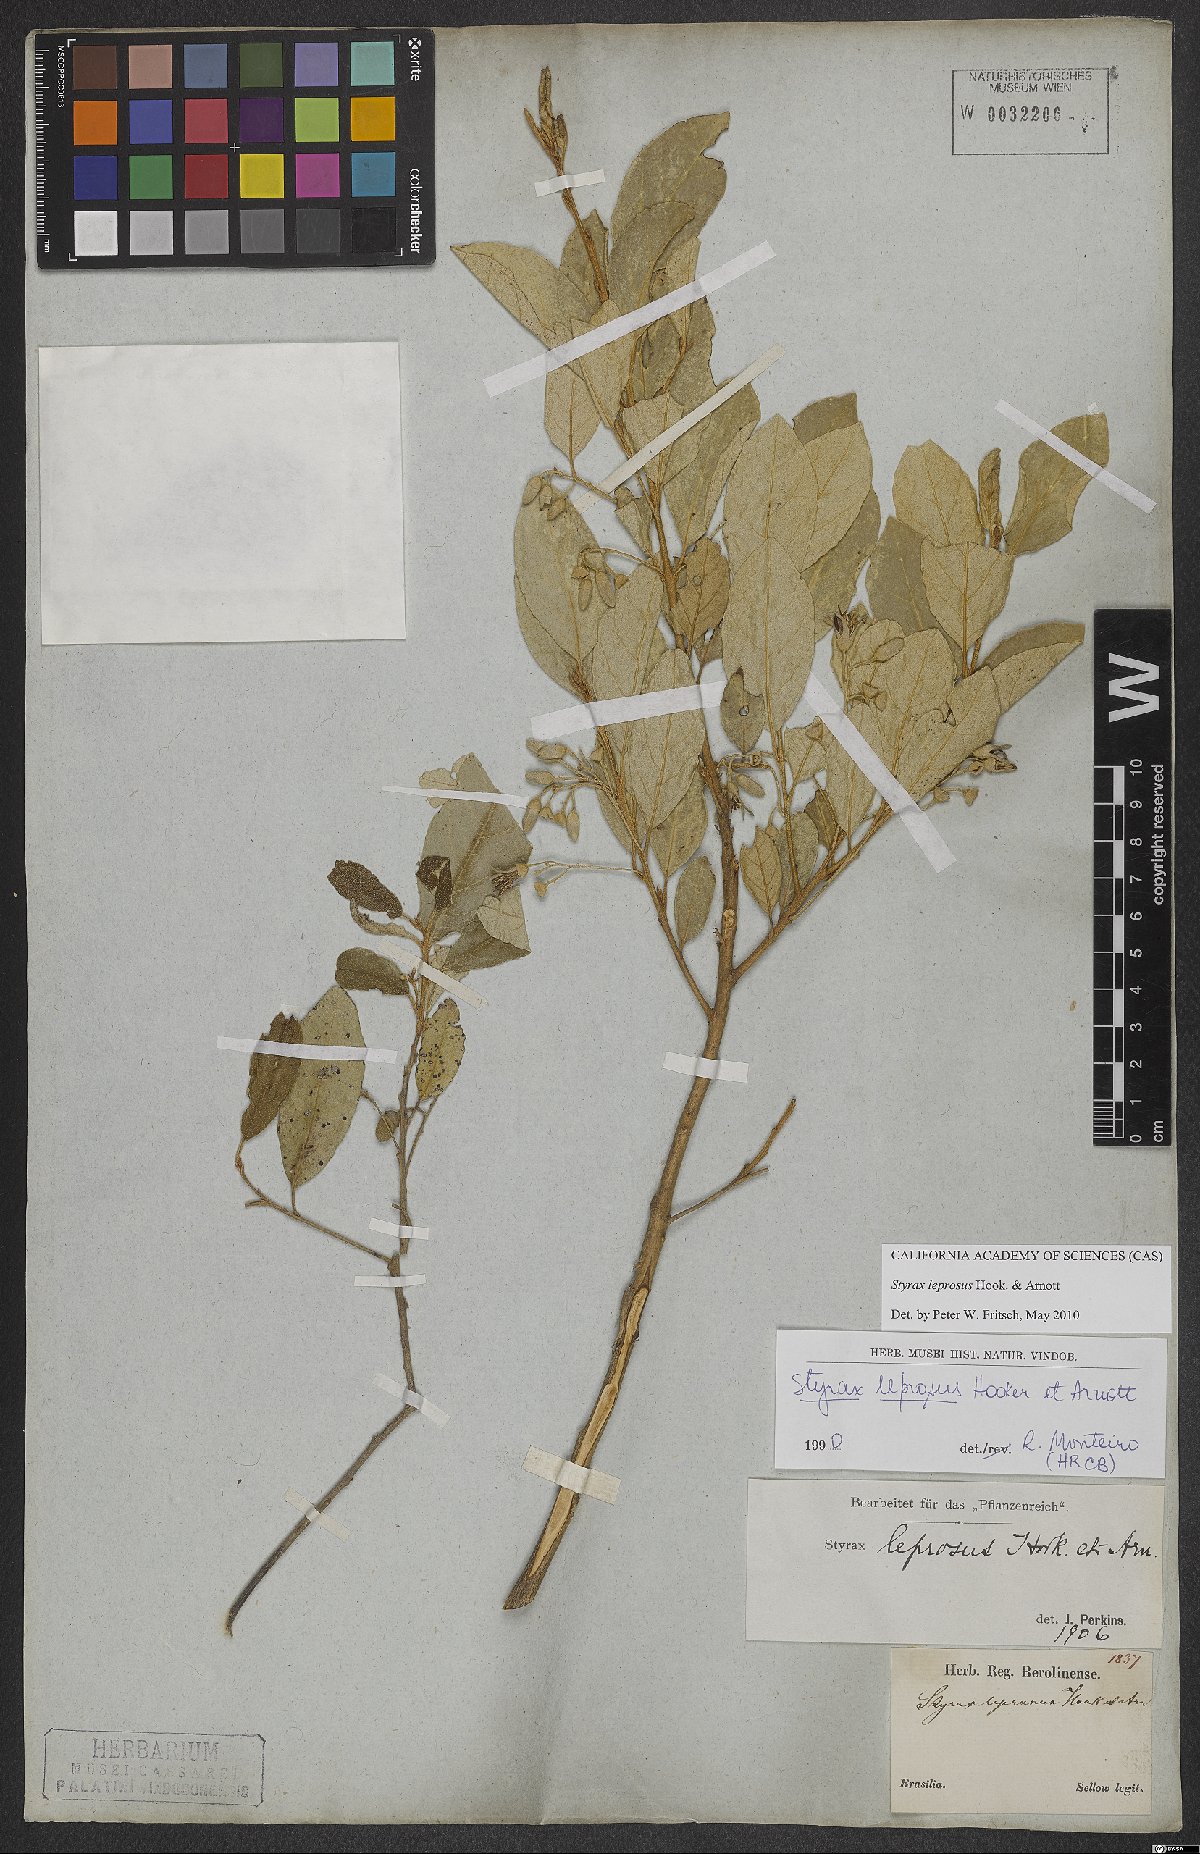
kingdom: Plantae
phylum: Tracheophyta
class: Magnoliopsida
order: Ericales
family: Styracaceae
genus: Styrax
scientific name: Styrax leprosus
